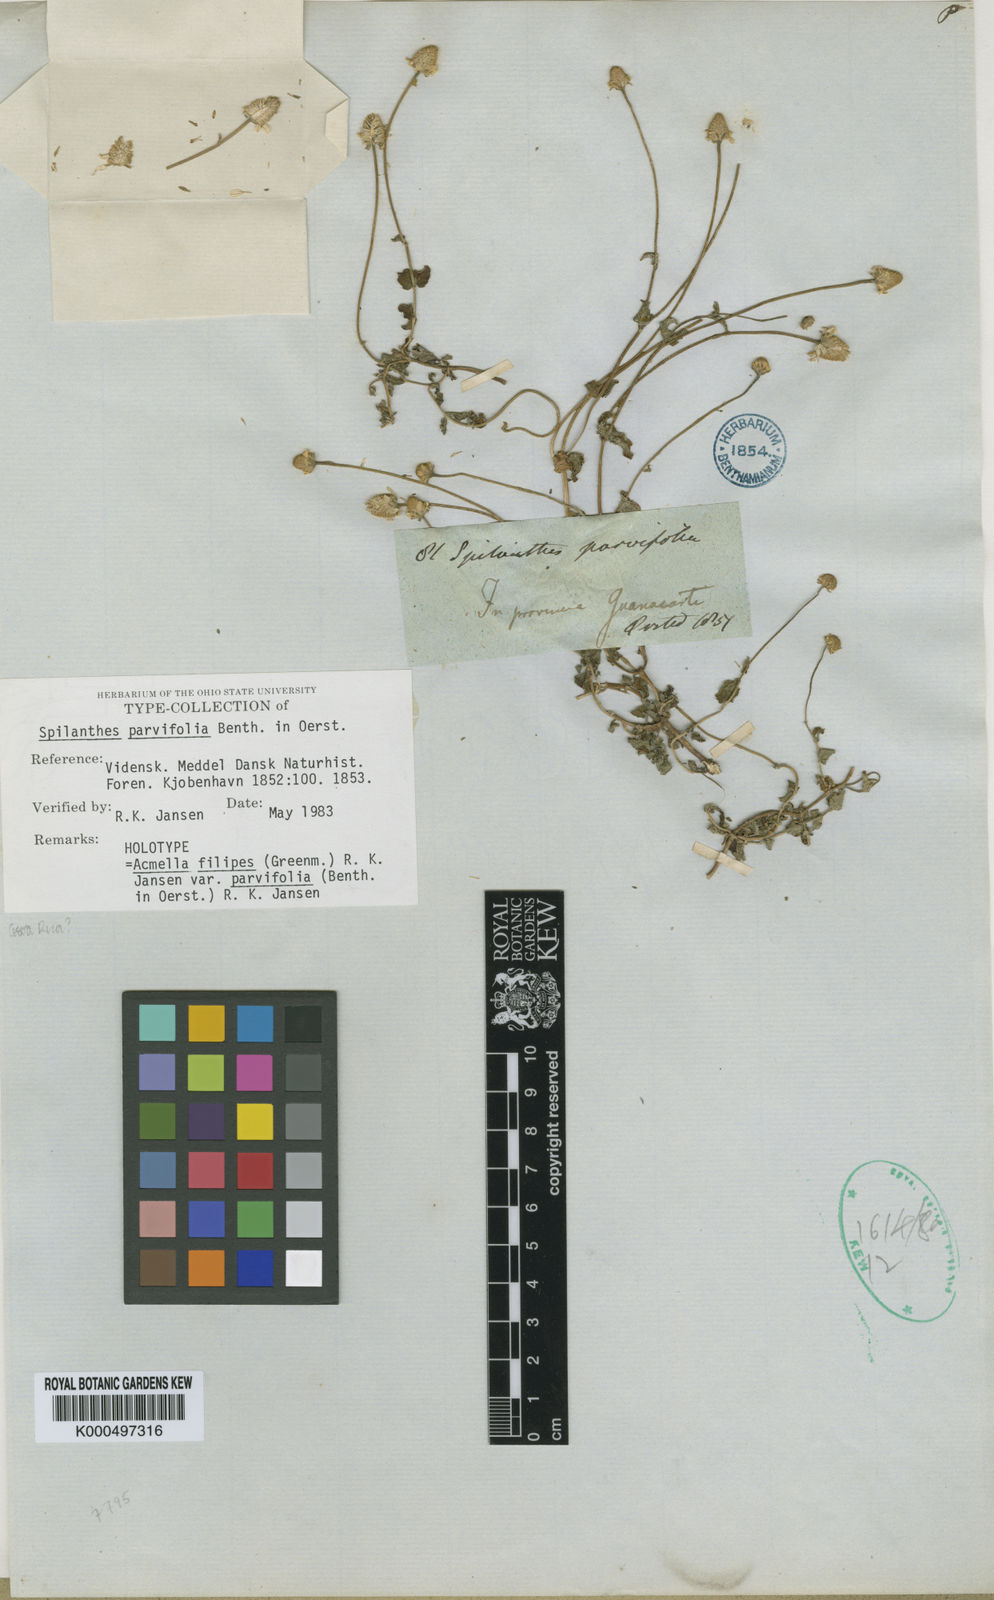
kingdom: Plantae
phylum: Tracheophyta
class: Magnoliopsida
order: Asterales
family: Asteraceae
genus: Acmella
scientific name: Acmella filipes
